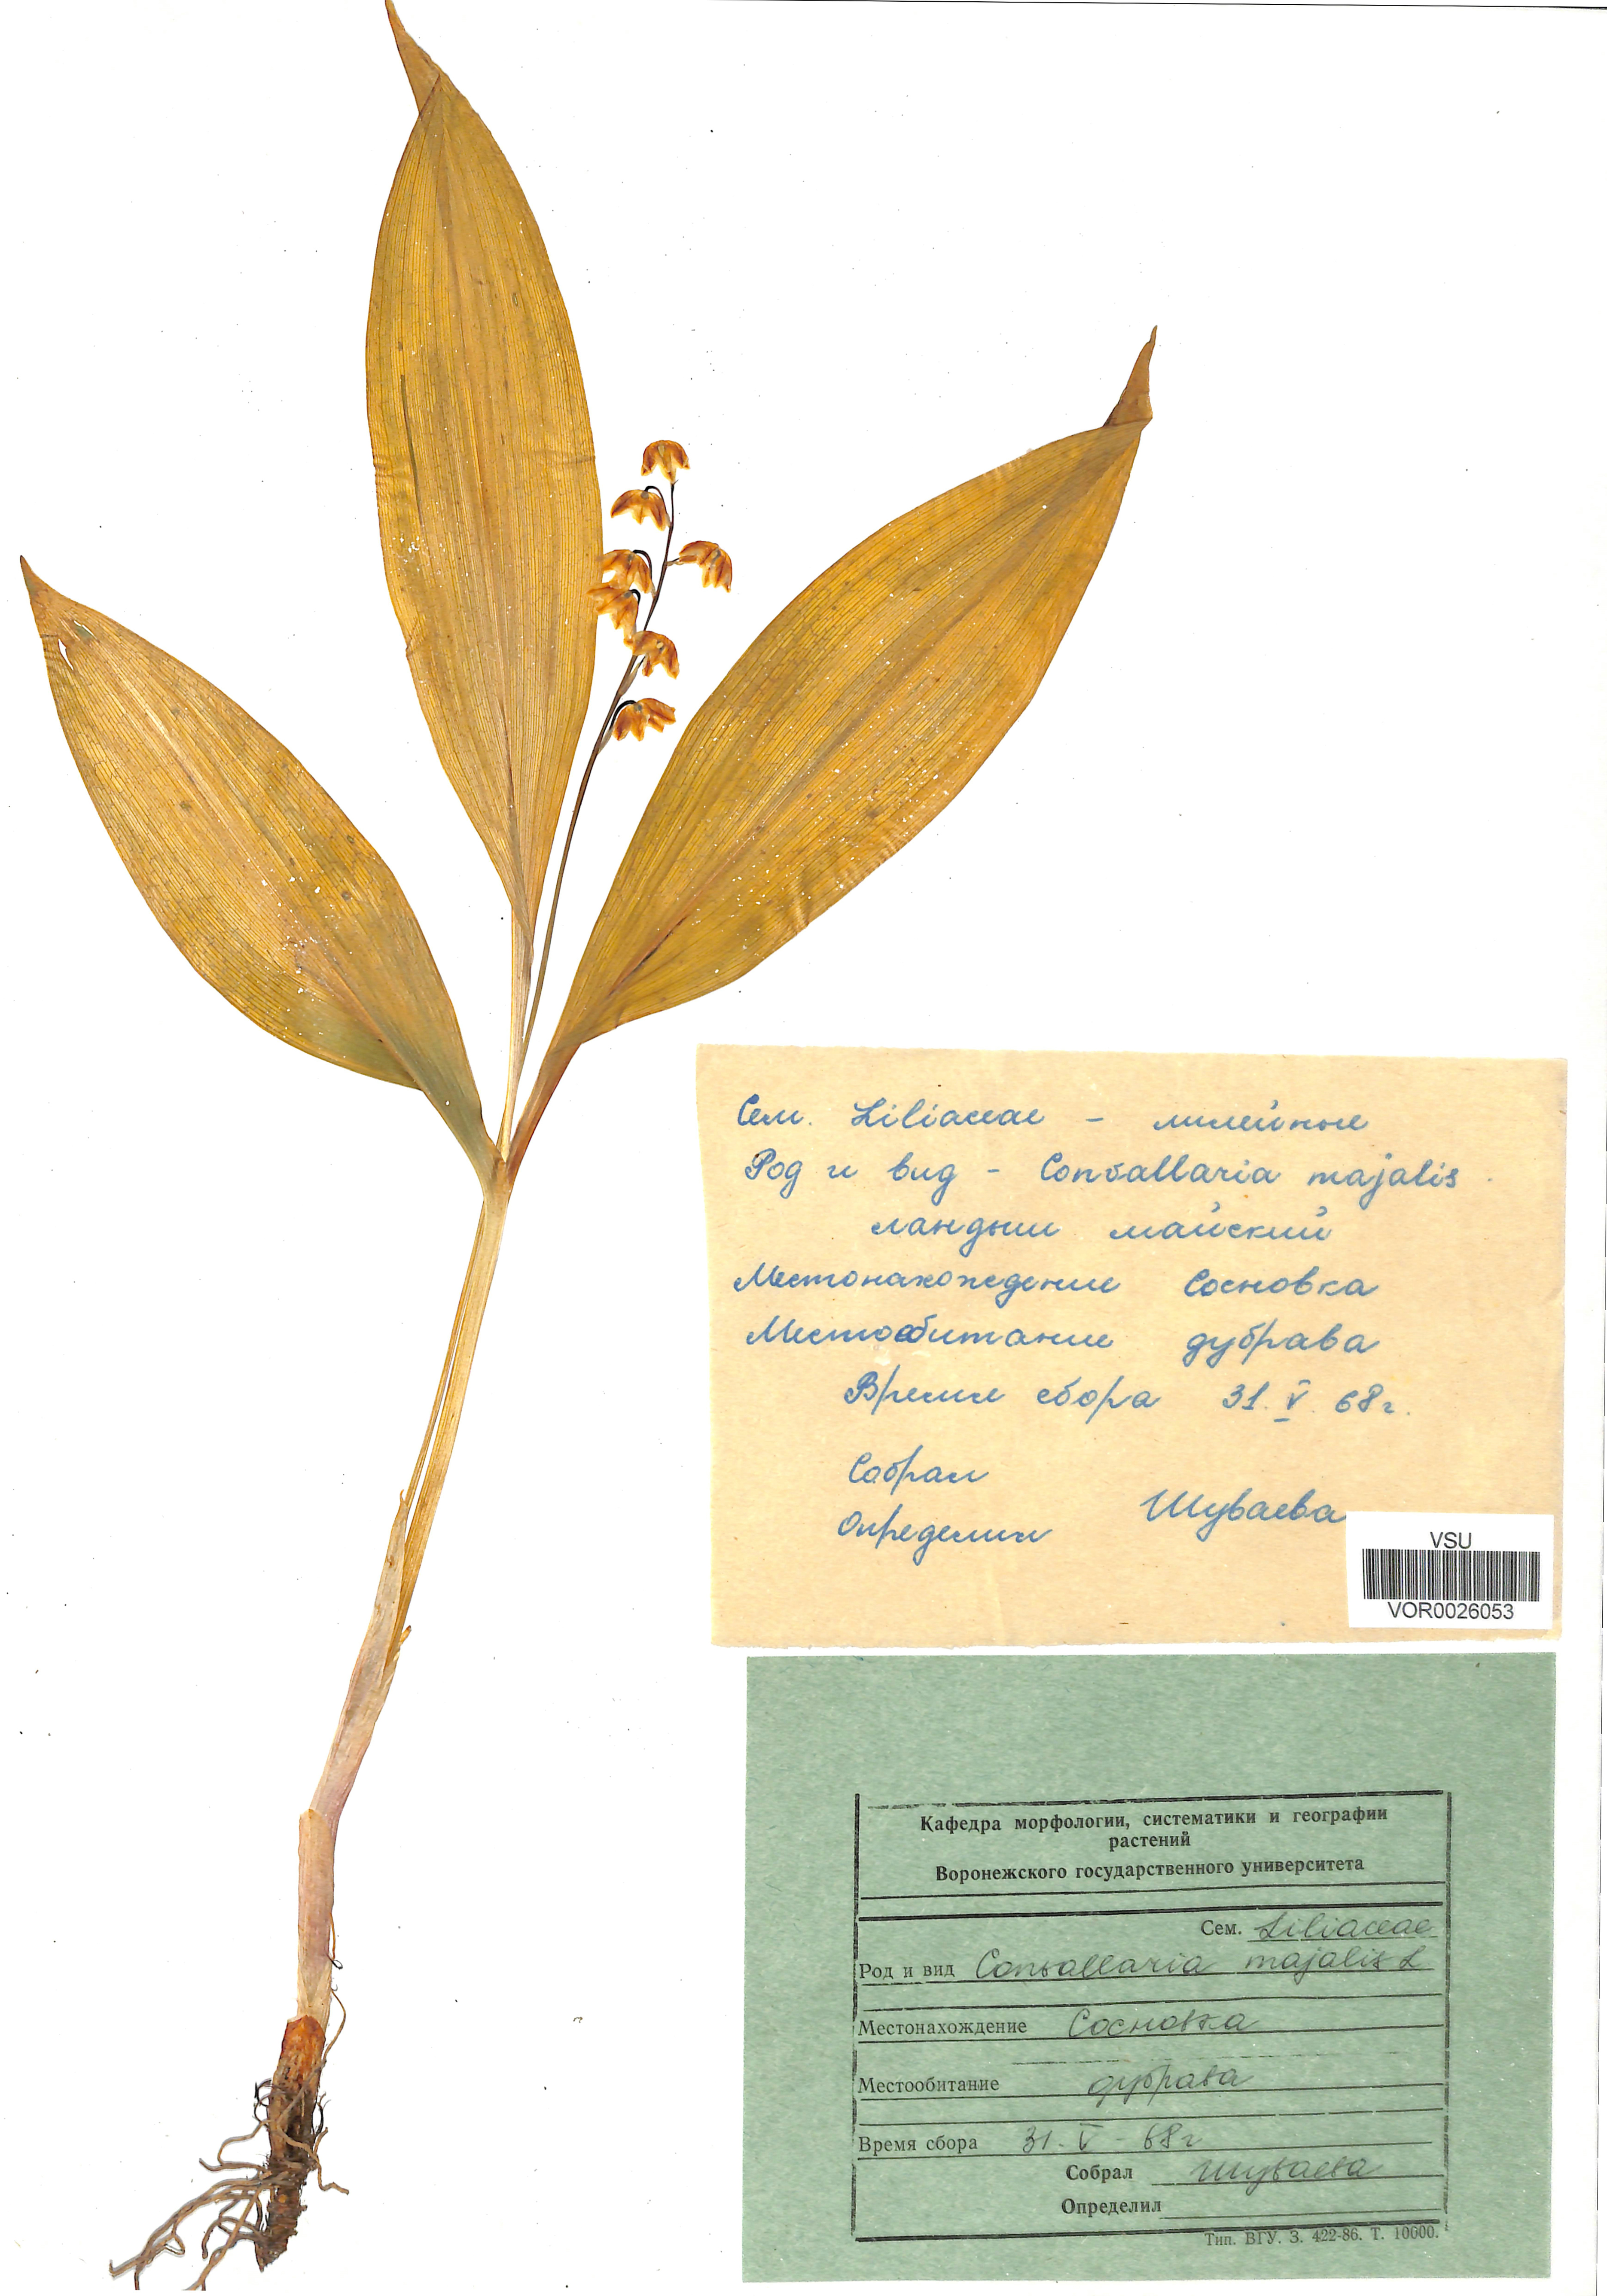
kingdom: Plantae
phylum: Tracheophyta
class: Liliopsida
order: Asparagales
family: Asparagaceae
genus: Convallaria
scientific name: Convallaria majalis
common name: Lily-of-the-valley
